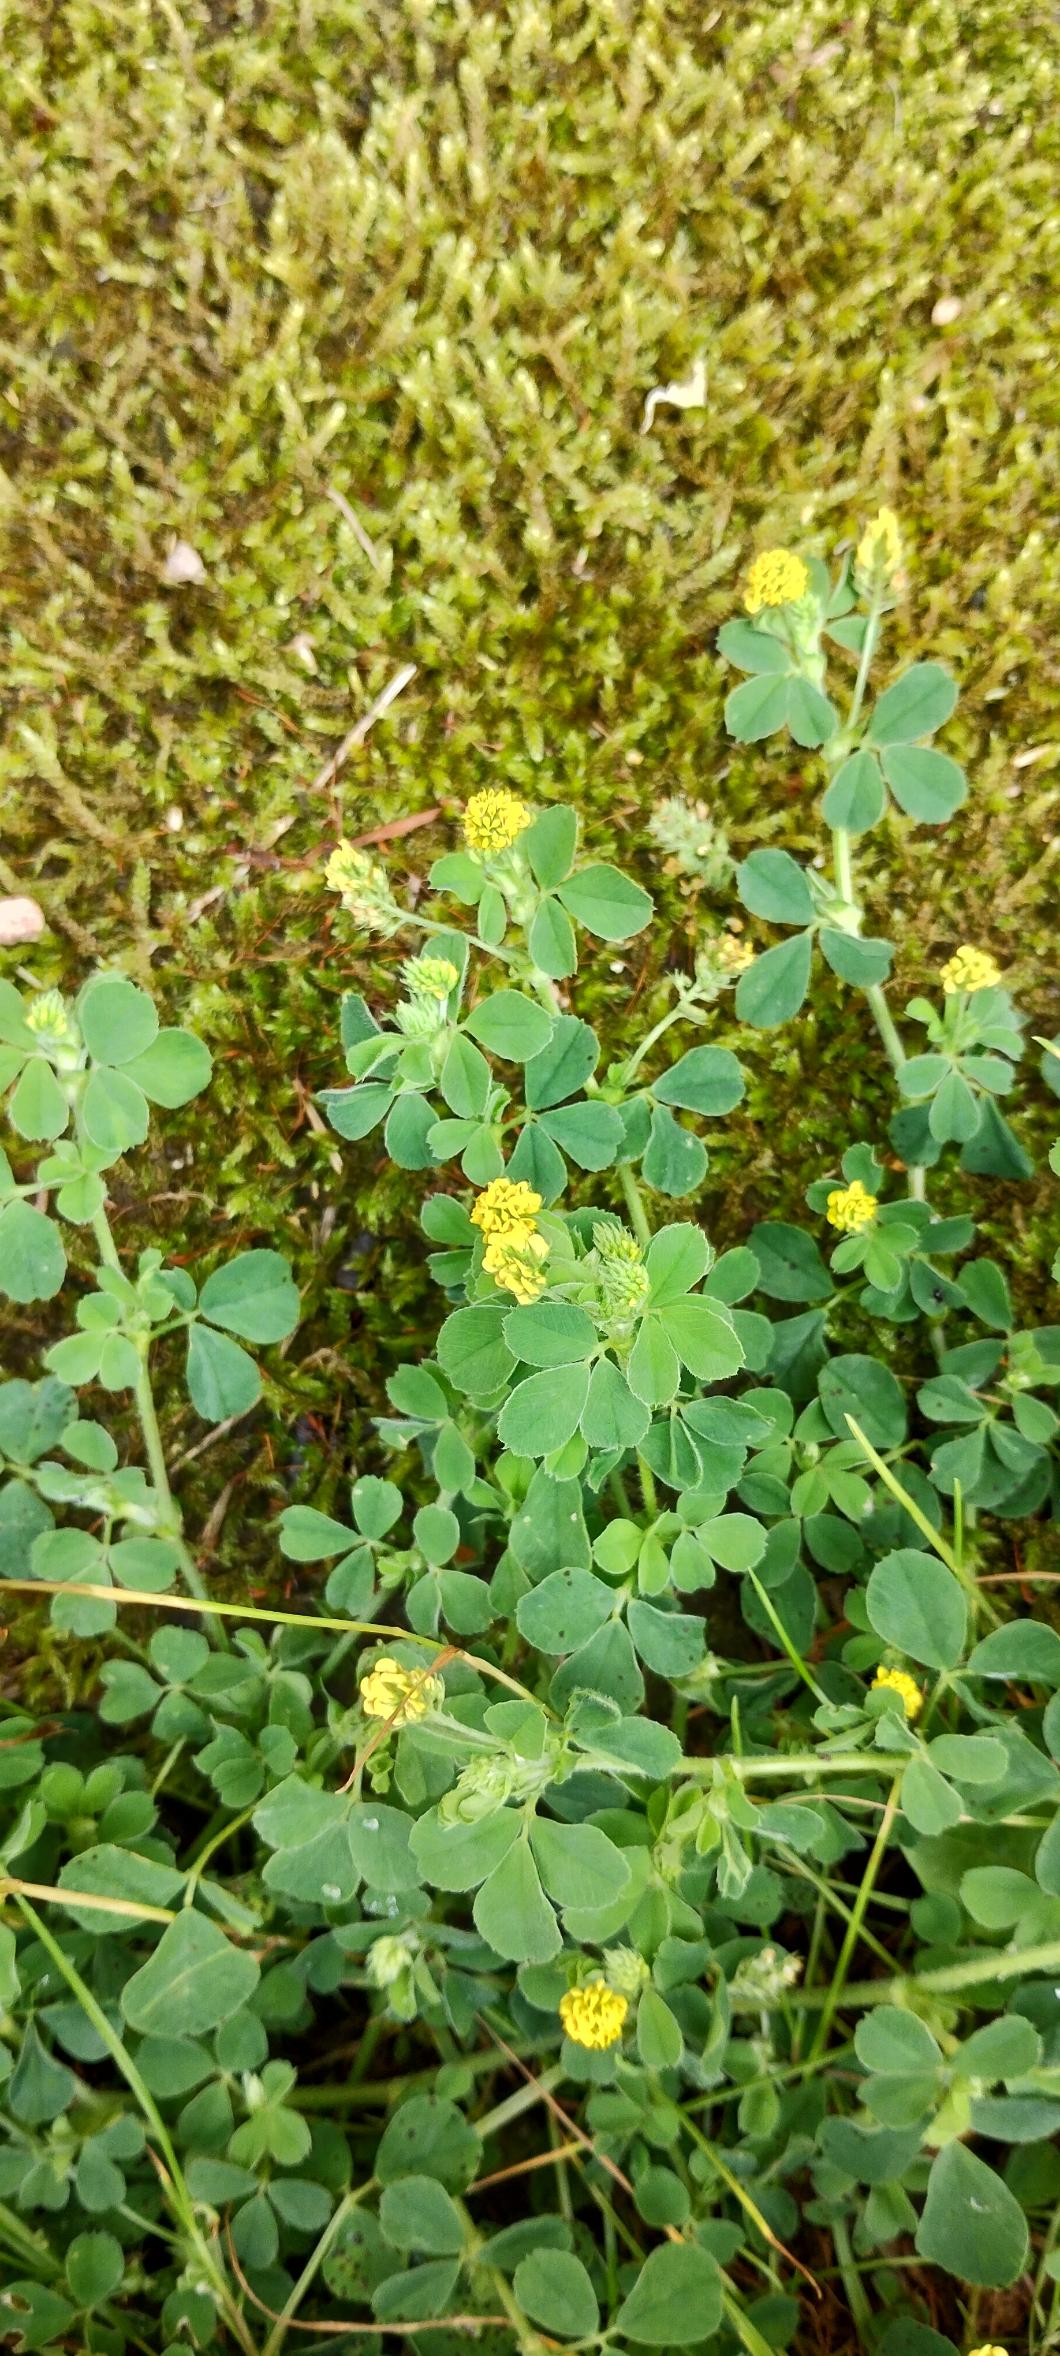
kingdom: Plantae
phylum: Tracheophyta
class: Magnoliopsida
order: Fabales
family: Fabaceae
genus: Medicago
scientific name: Medicago lupulina
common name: Humle-sneglebælg
